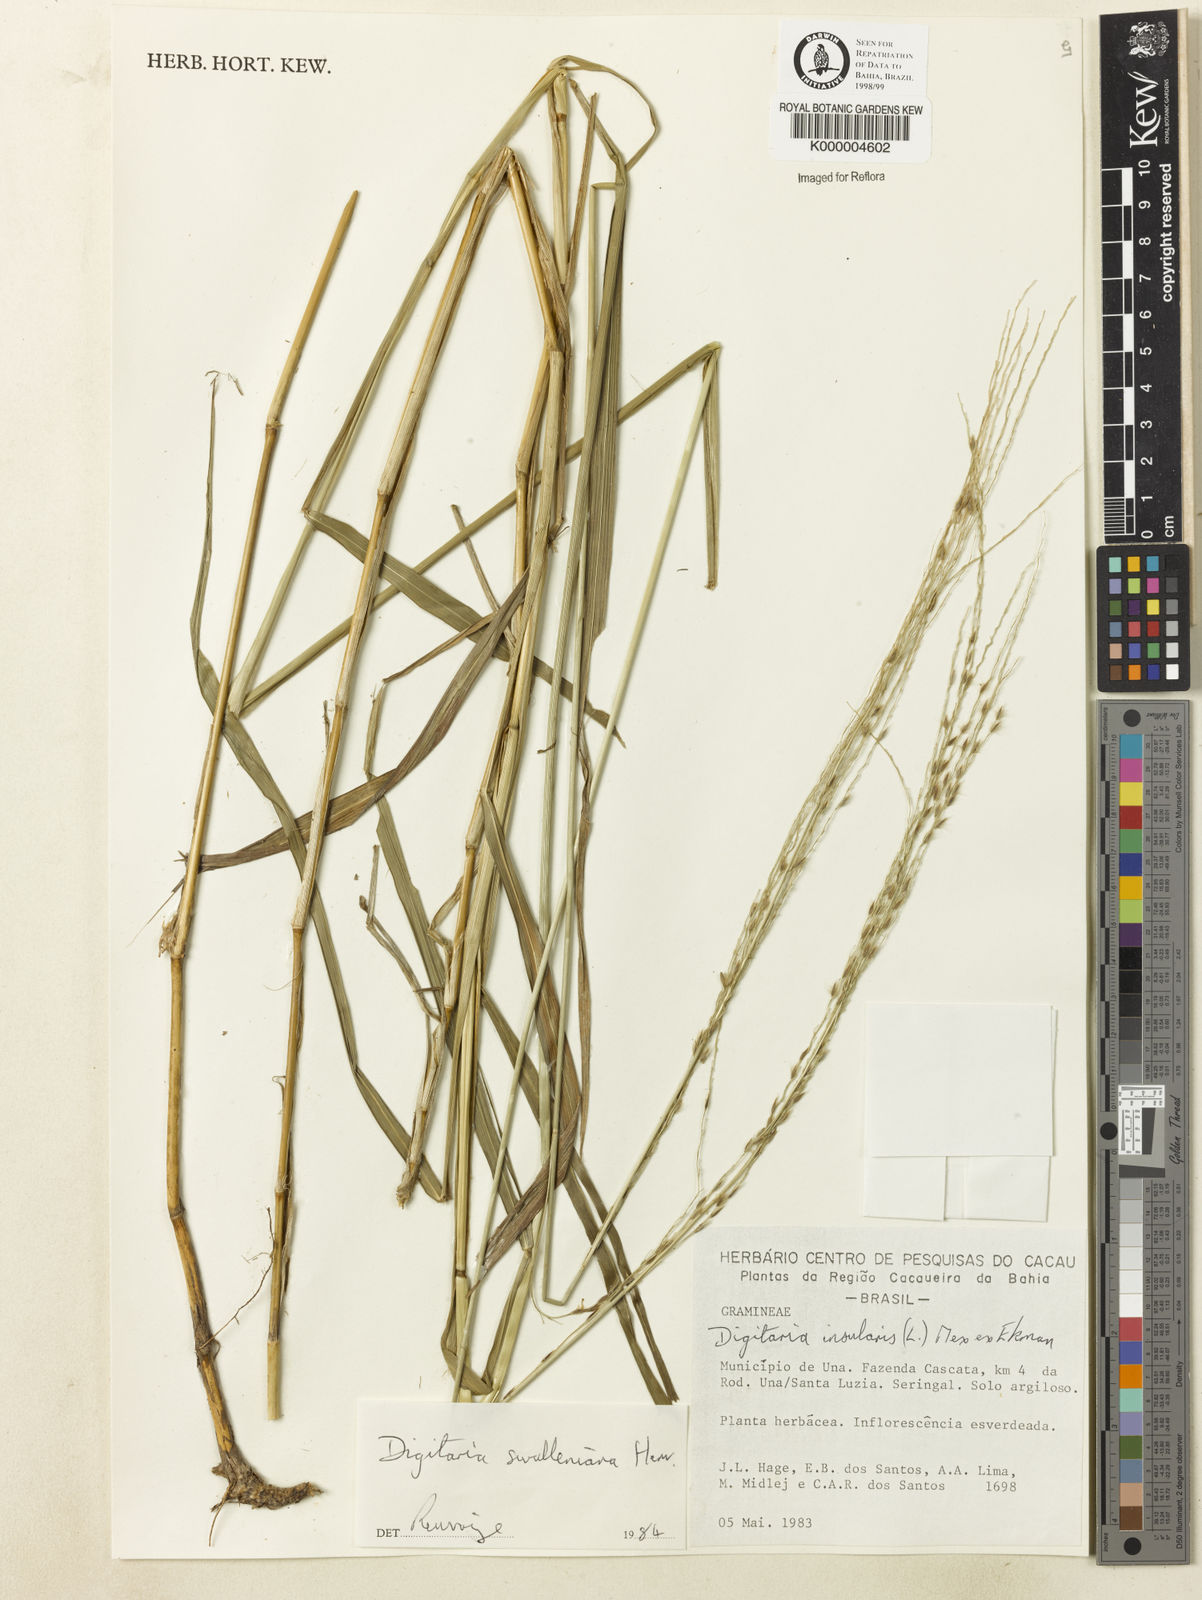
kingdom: Plantae
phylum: Tracheophyta
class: Liliopsida
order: Poales
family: Poaceae
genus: Digitaria
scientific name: Digitaria sellowii
